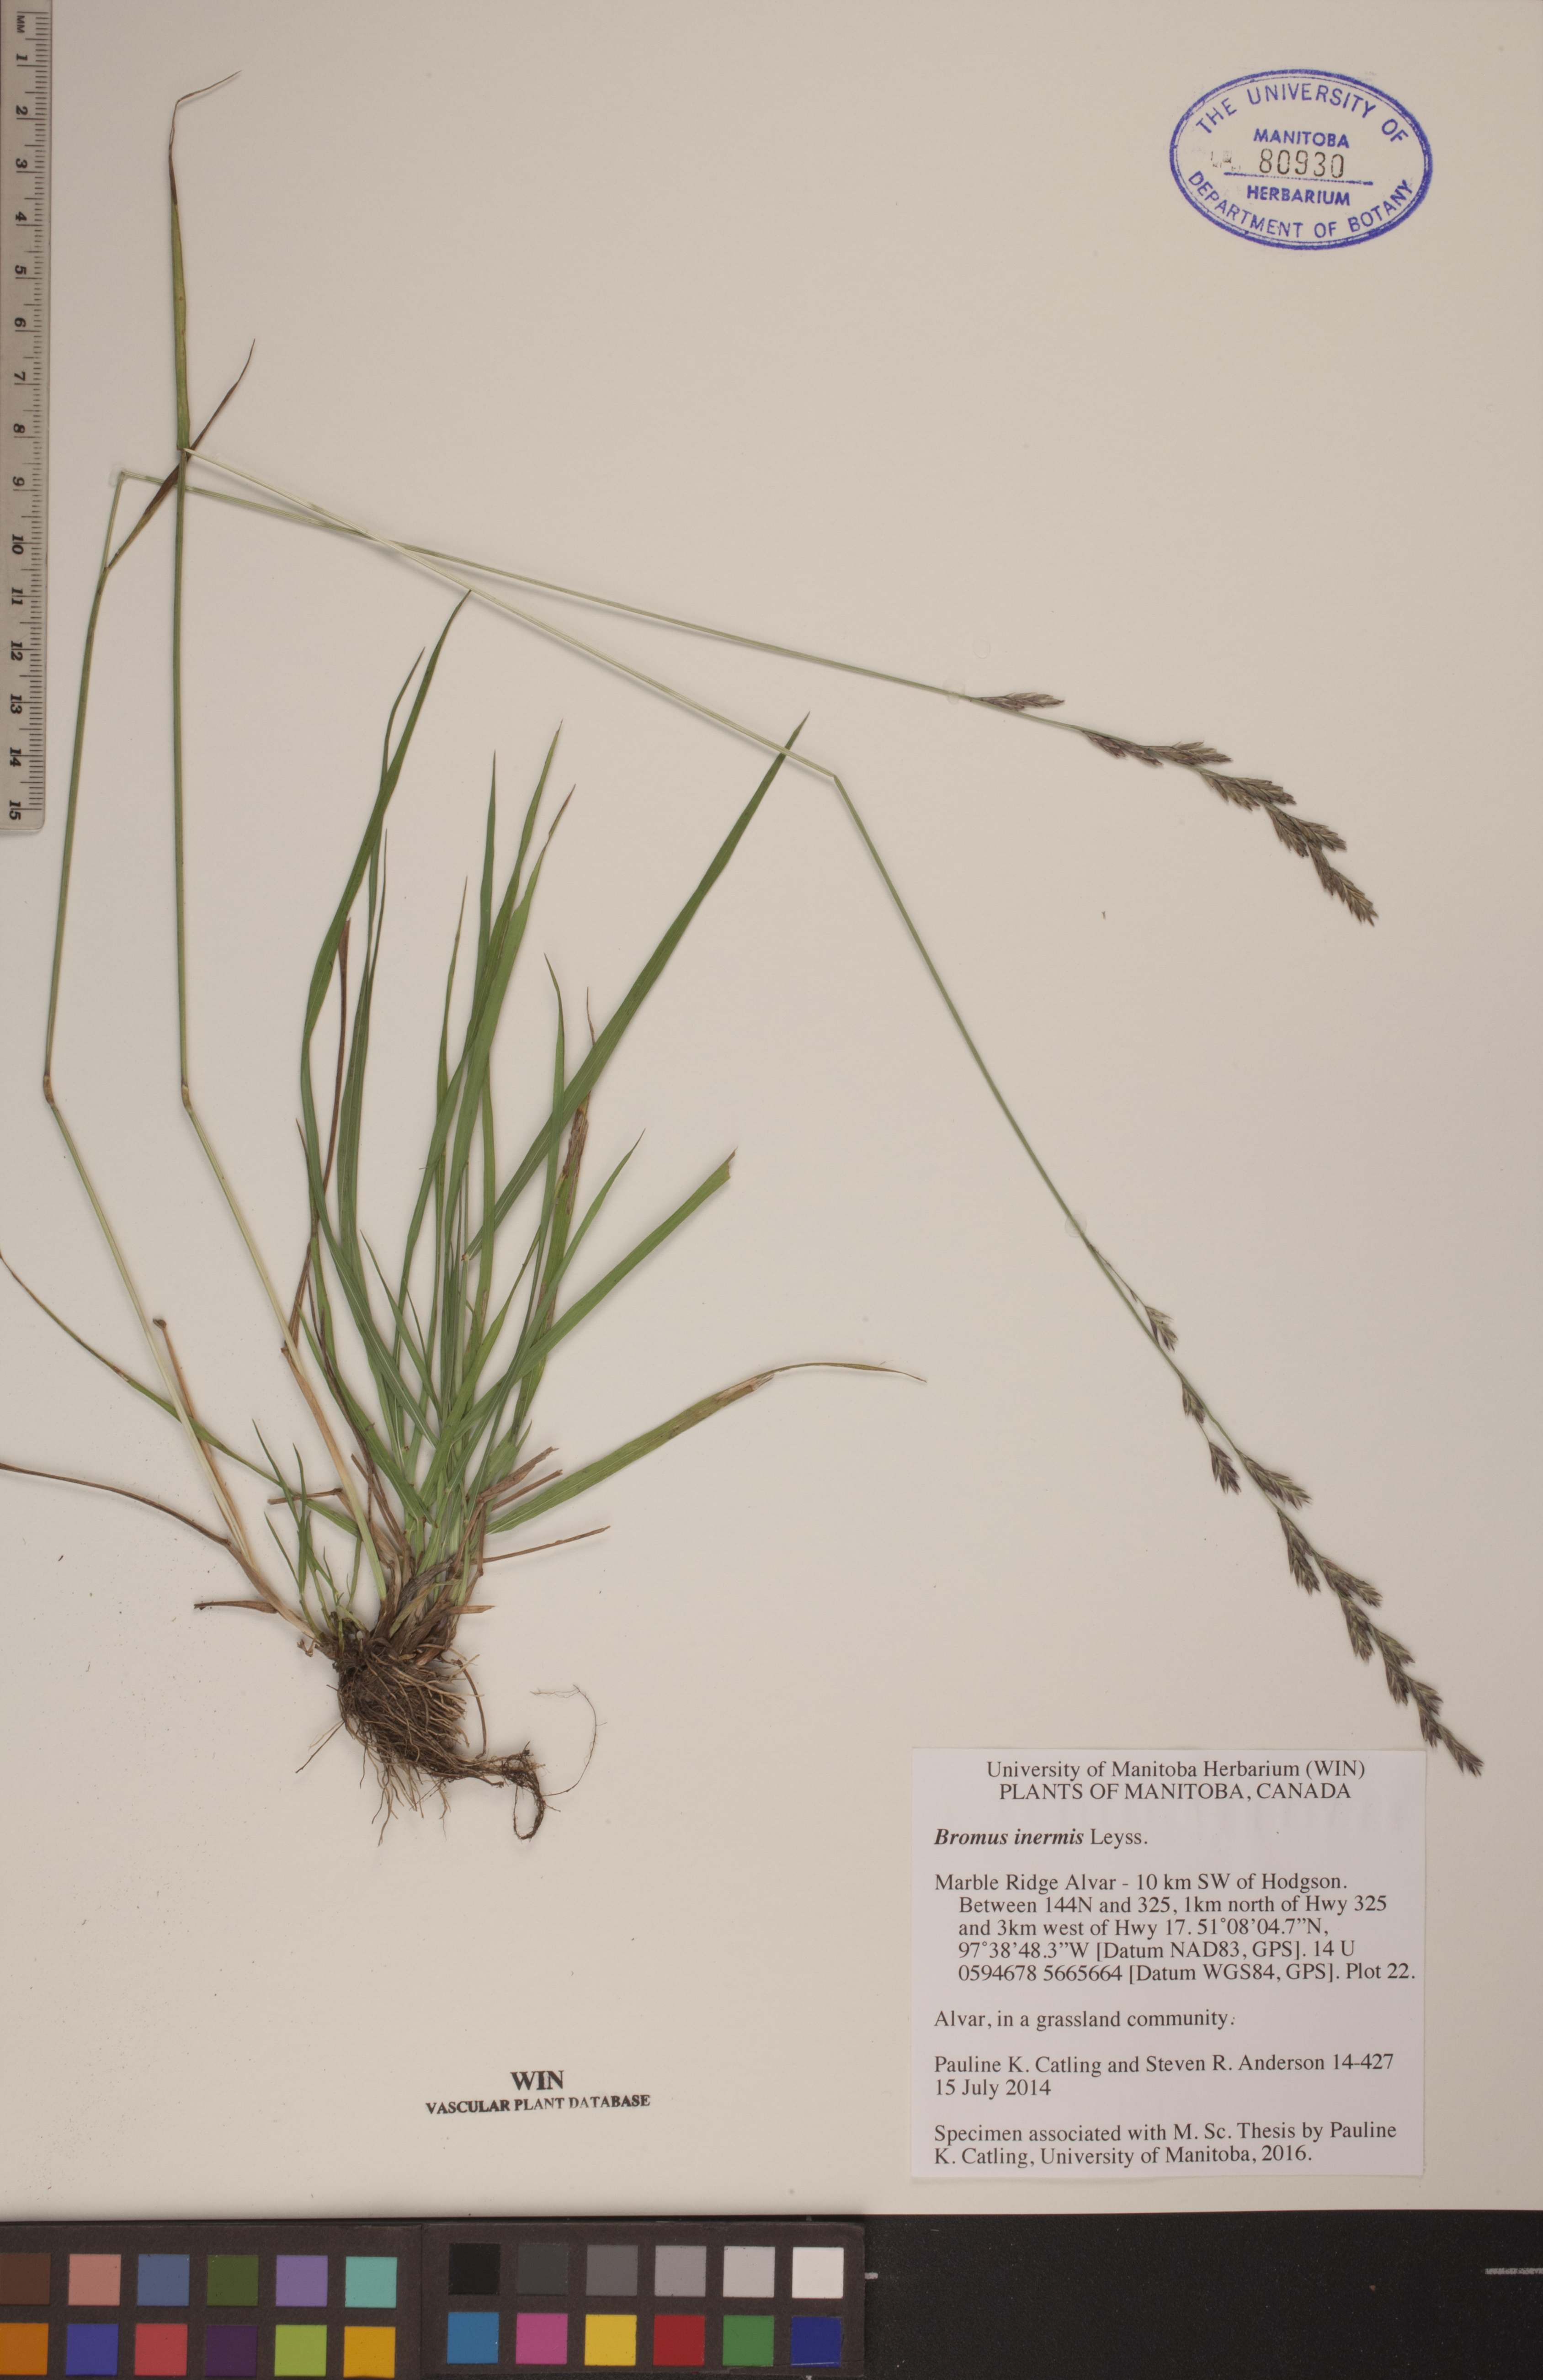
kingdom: Plantae
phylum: Tracheophyta
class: Liliopsida
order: Poales
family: Poaceae
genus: Bromus
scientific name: Bromus inermis
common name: Smooth brome
